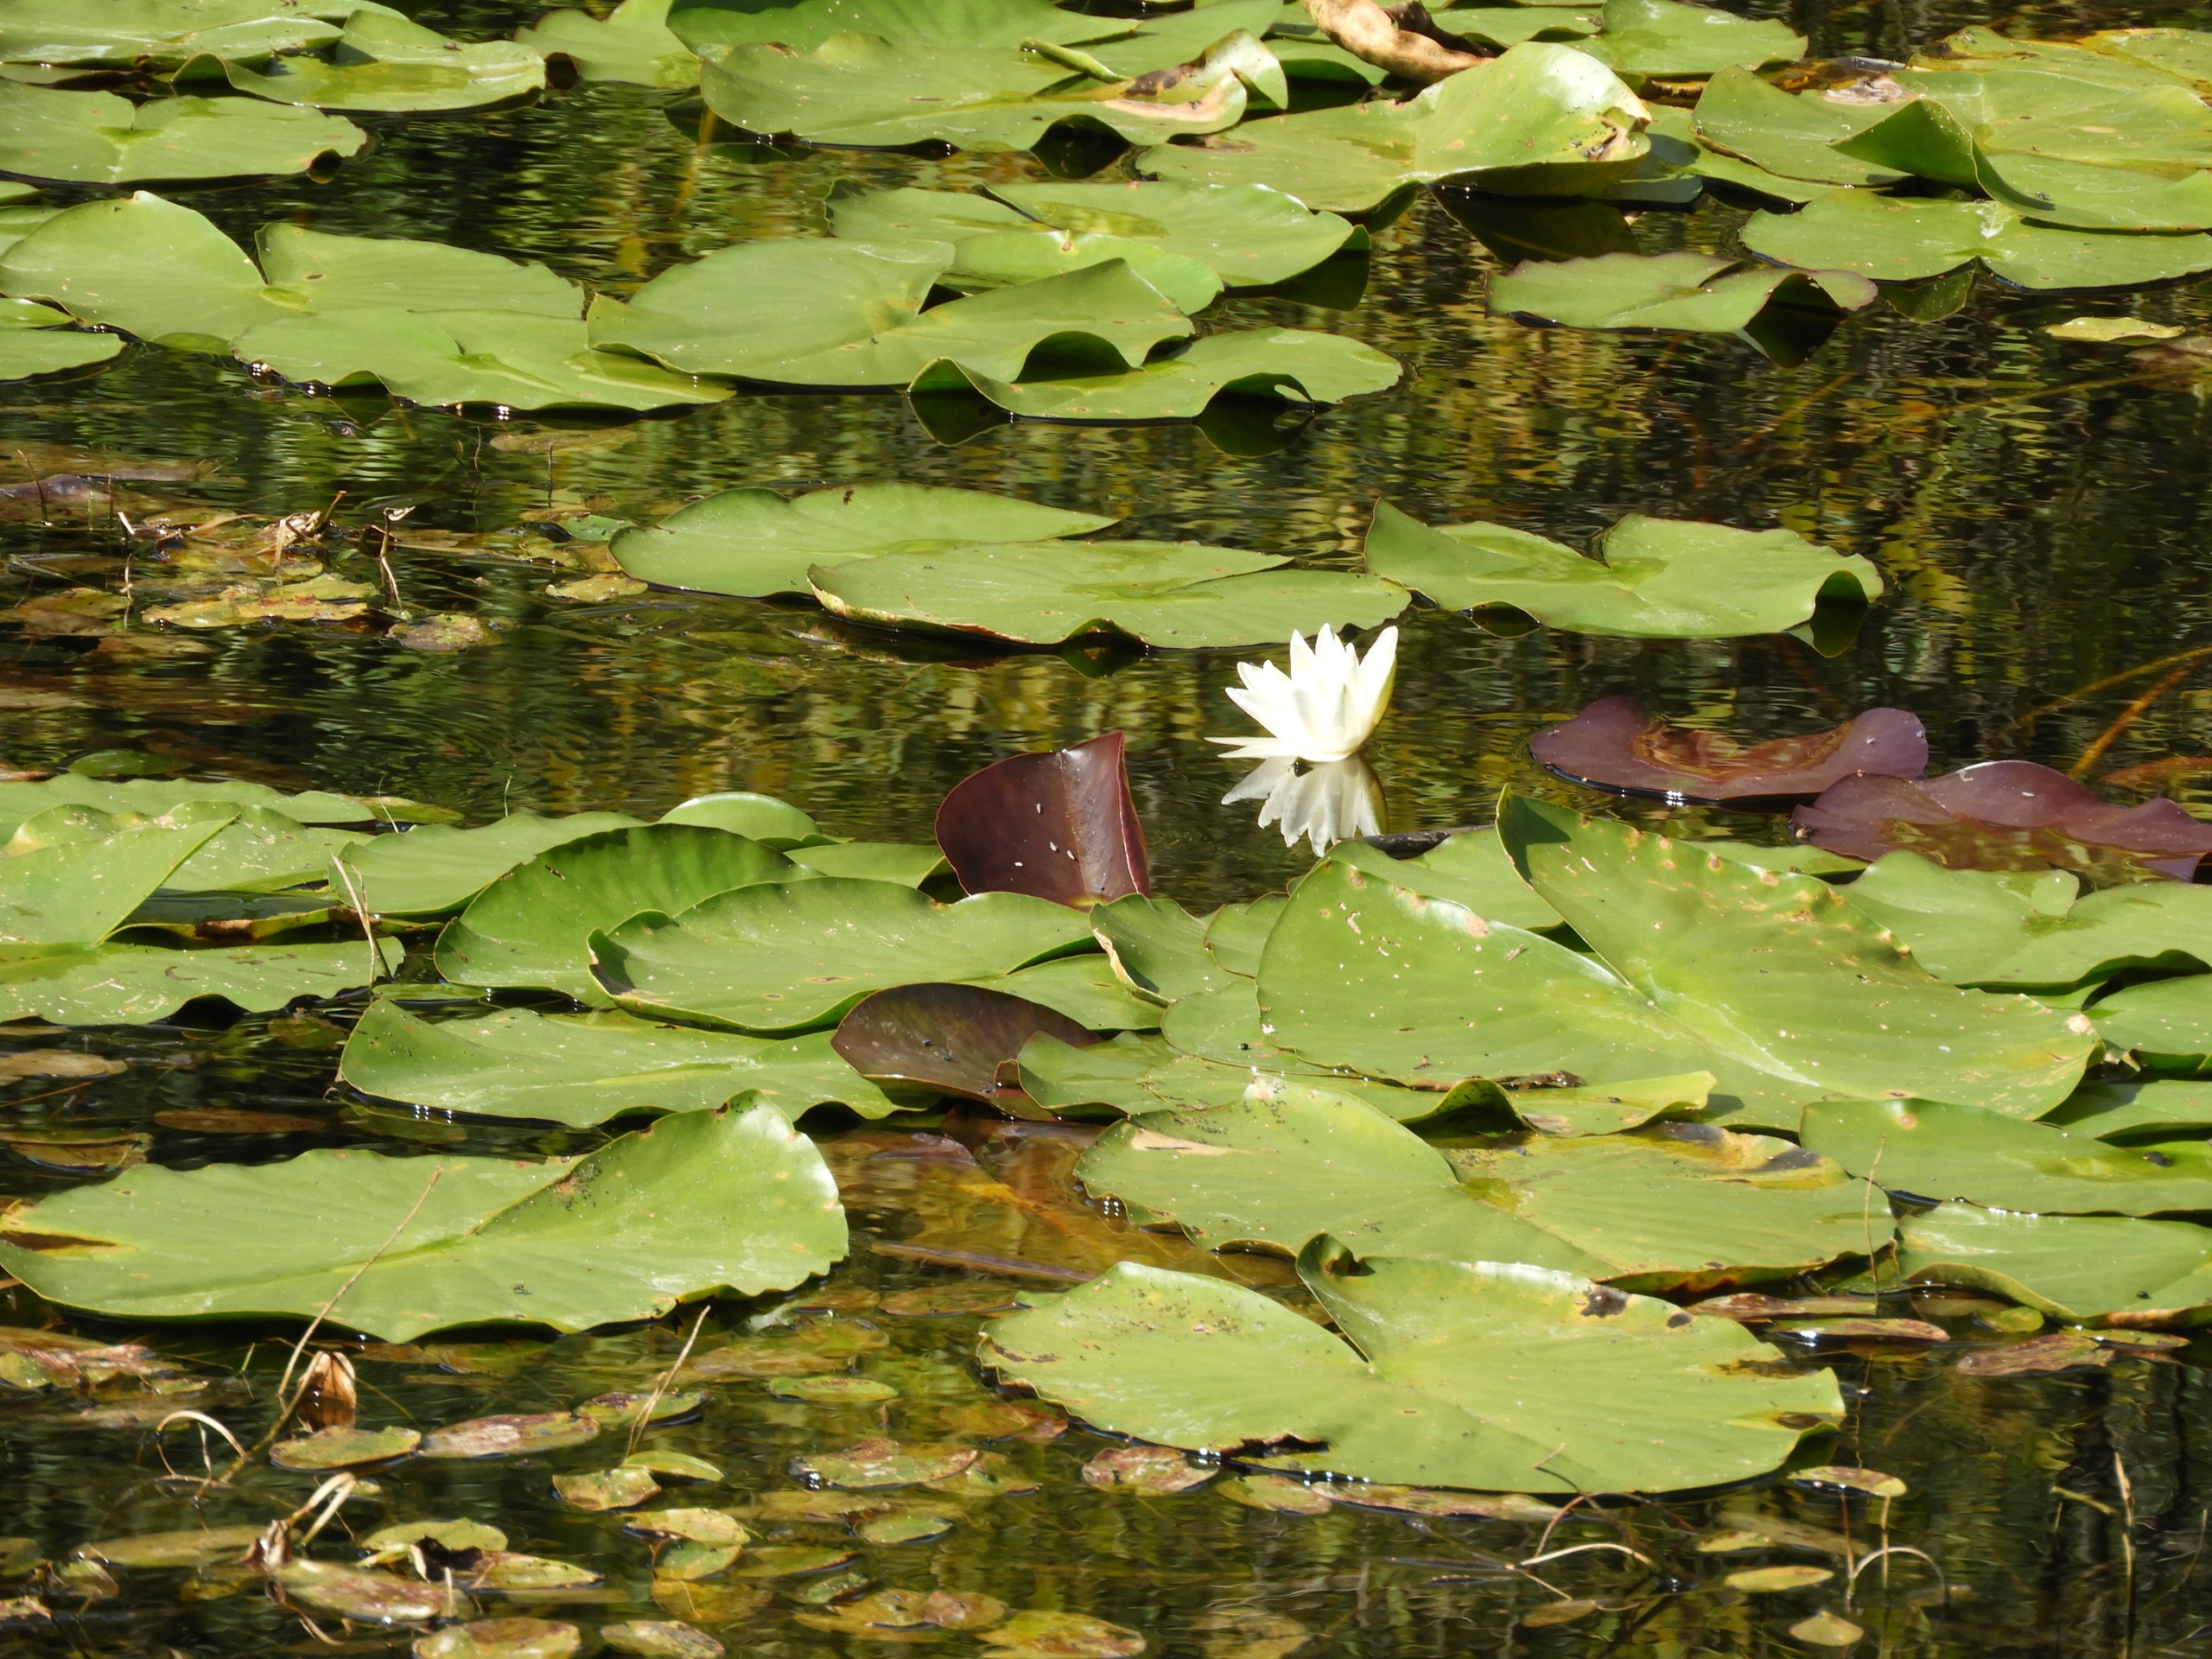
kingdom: Plantae
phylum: Tracheophyta
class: Magnoliopsida
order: Nymphaeales
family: Nymphaeaceae
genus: Nymphaea
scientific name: Nymphaea alba
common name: Hvid åkande
